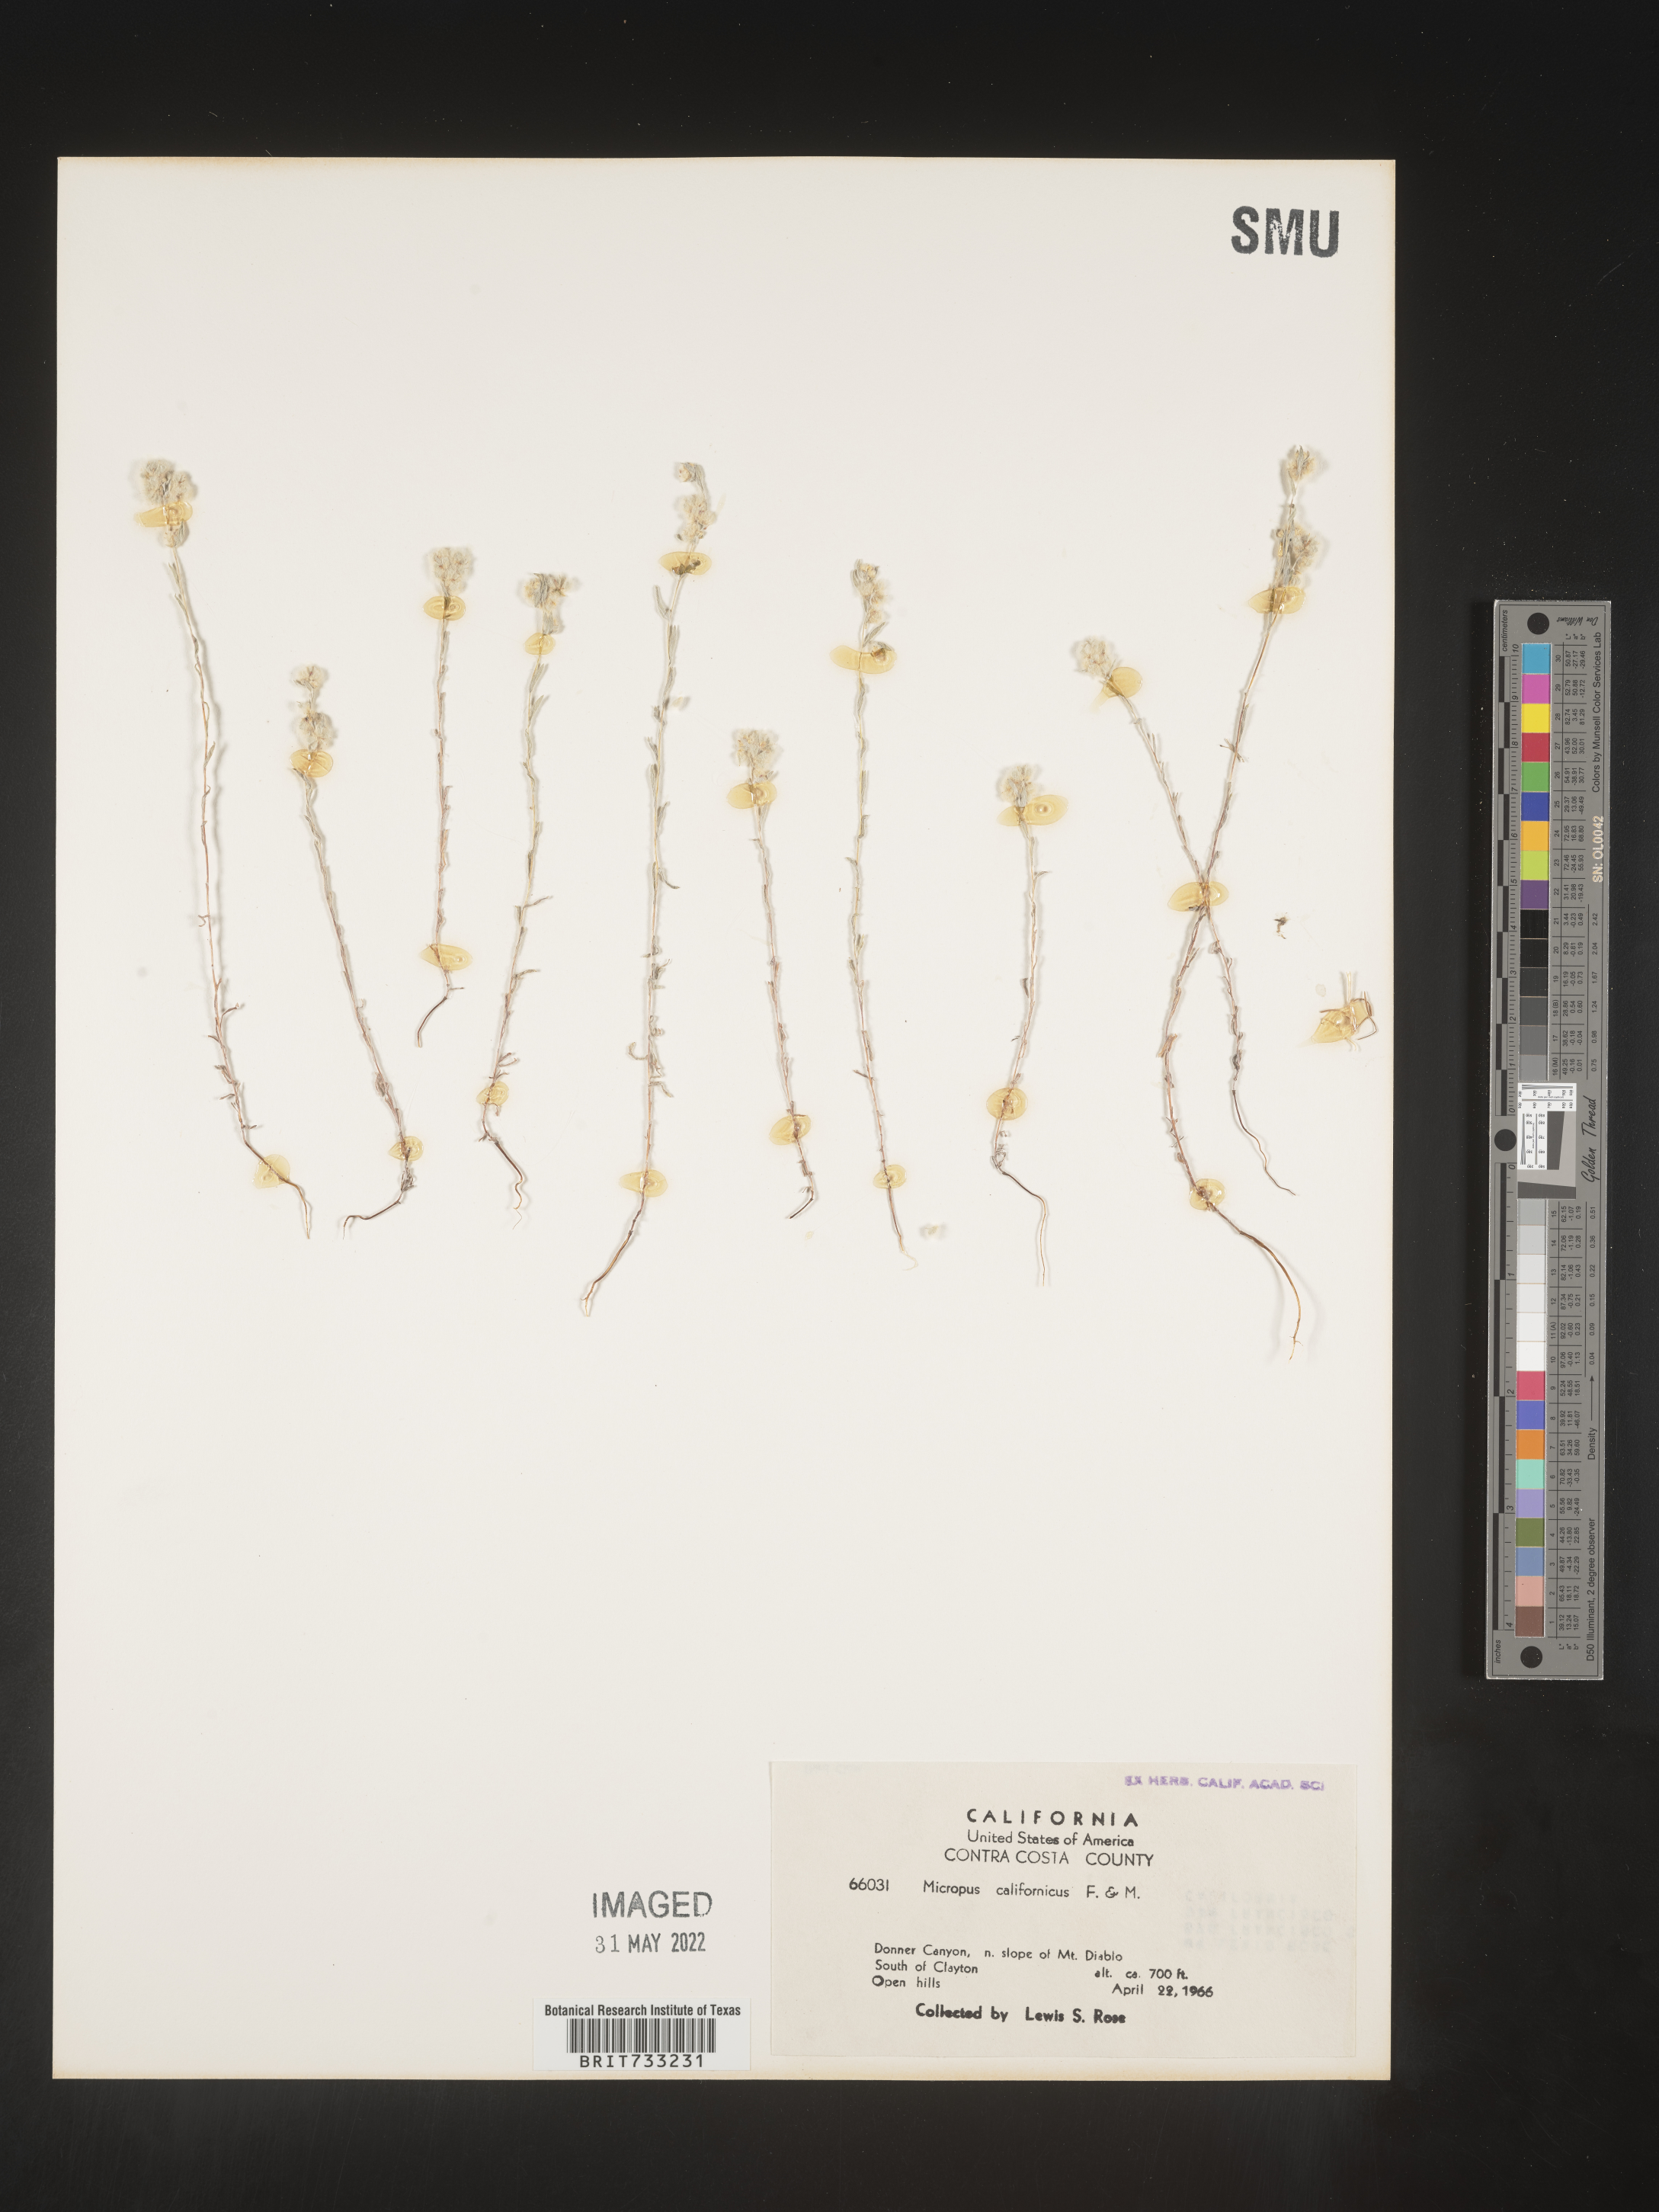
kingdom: Plantae
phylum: Tracheophyta
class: Magnoliopsida
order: Asterales
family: Asteraceae
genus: Micropus
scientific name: Micropus
